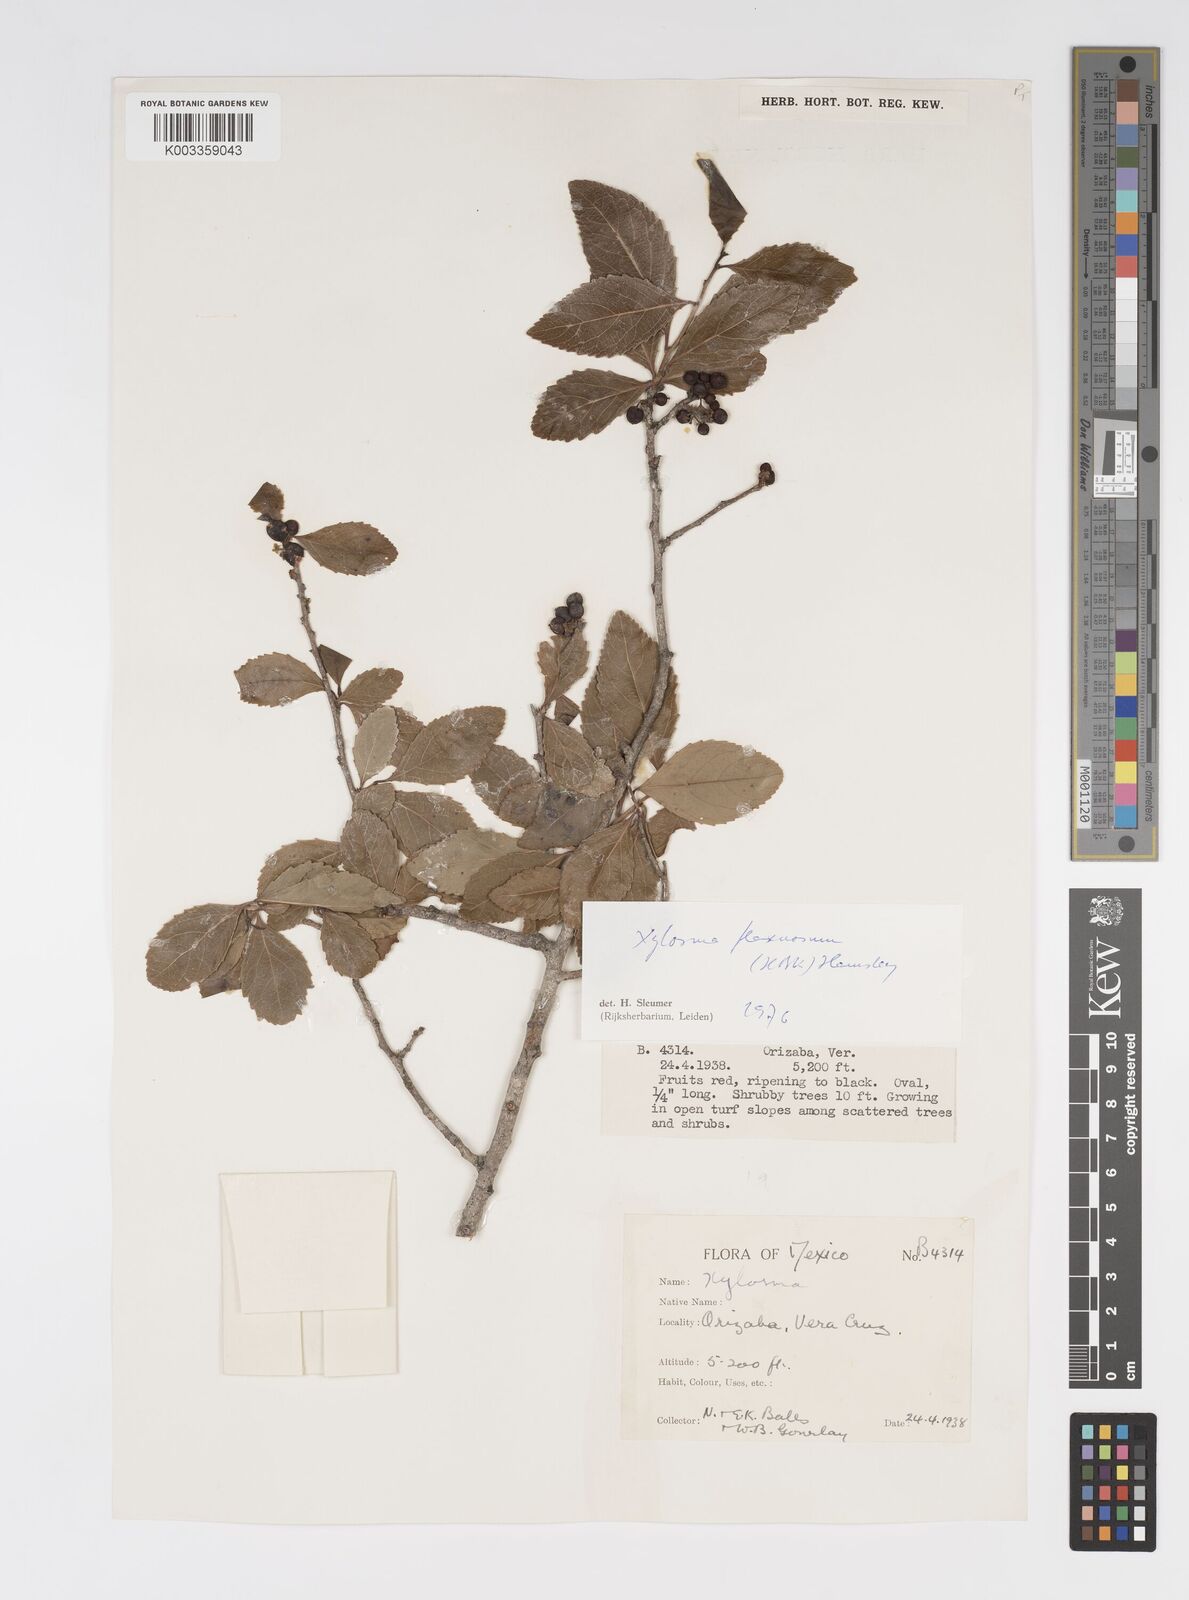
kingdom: Plantae
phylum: Tracheophyta
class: Magnoliopsida
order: Malpighiales
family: Salicaceae
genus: Xylosma
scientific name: Xylosma flexuosa
